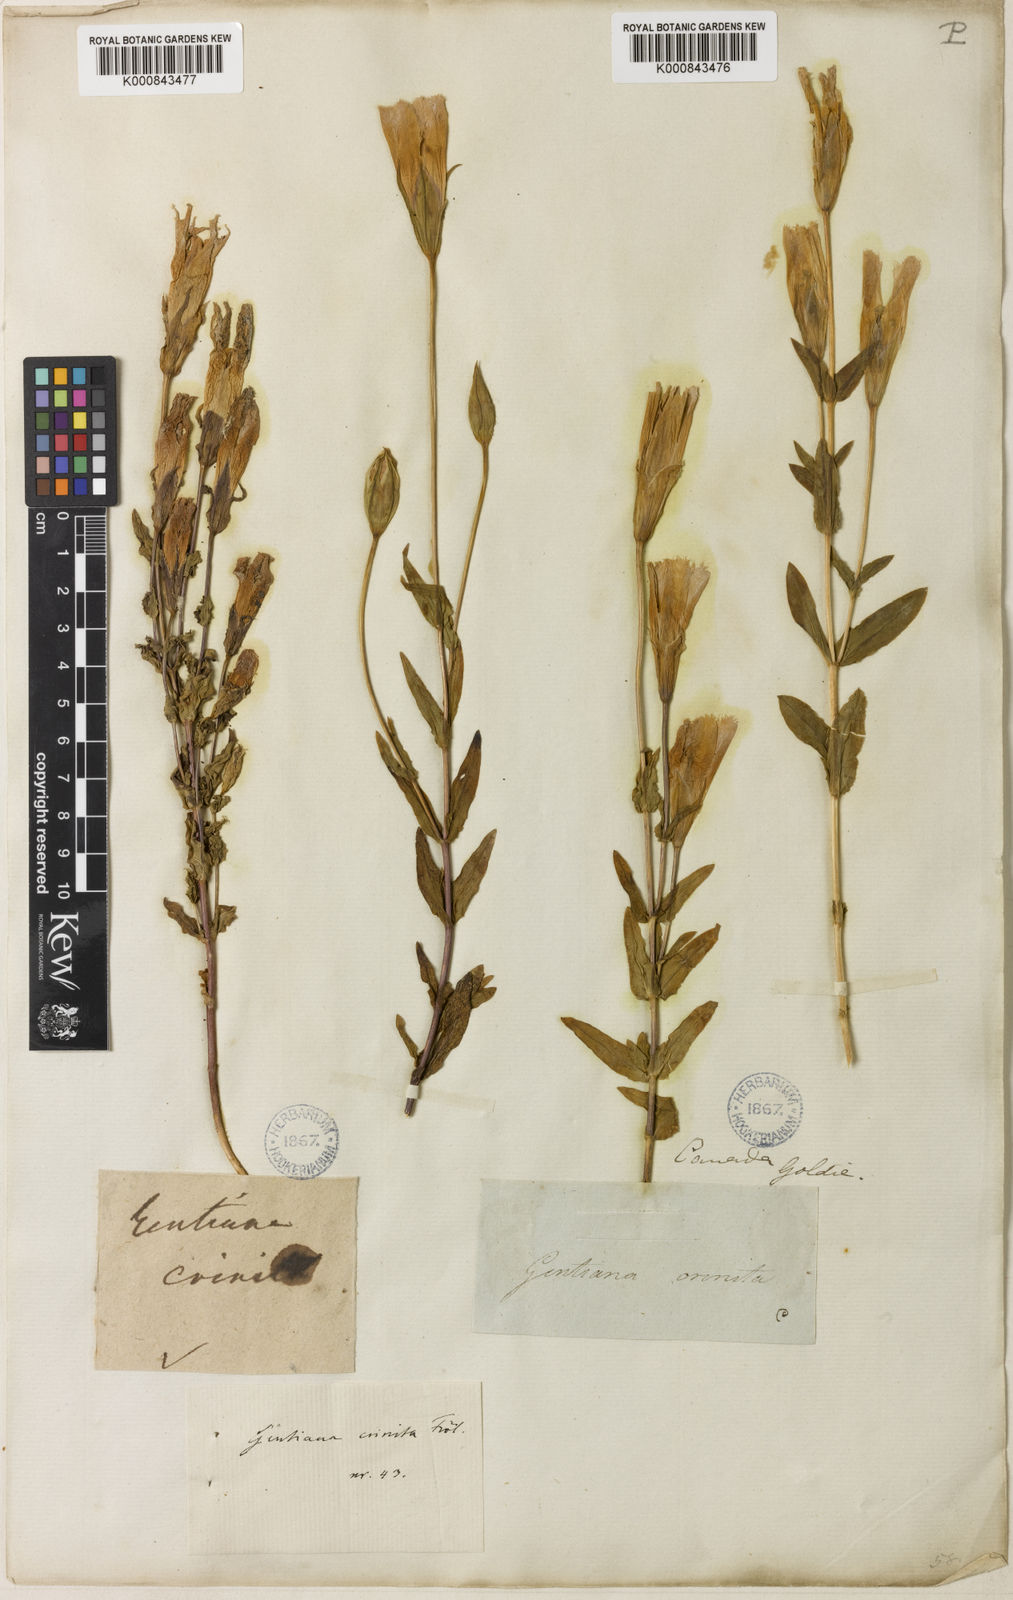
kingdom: Plantae
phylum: Tracheophyta
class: Magnoliopsida
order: Gentianales
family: Gentianaceae
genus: Gentianopsis
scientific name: Gentianopsis crinita
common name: Fringed-gentian
